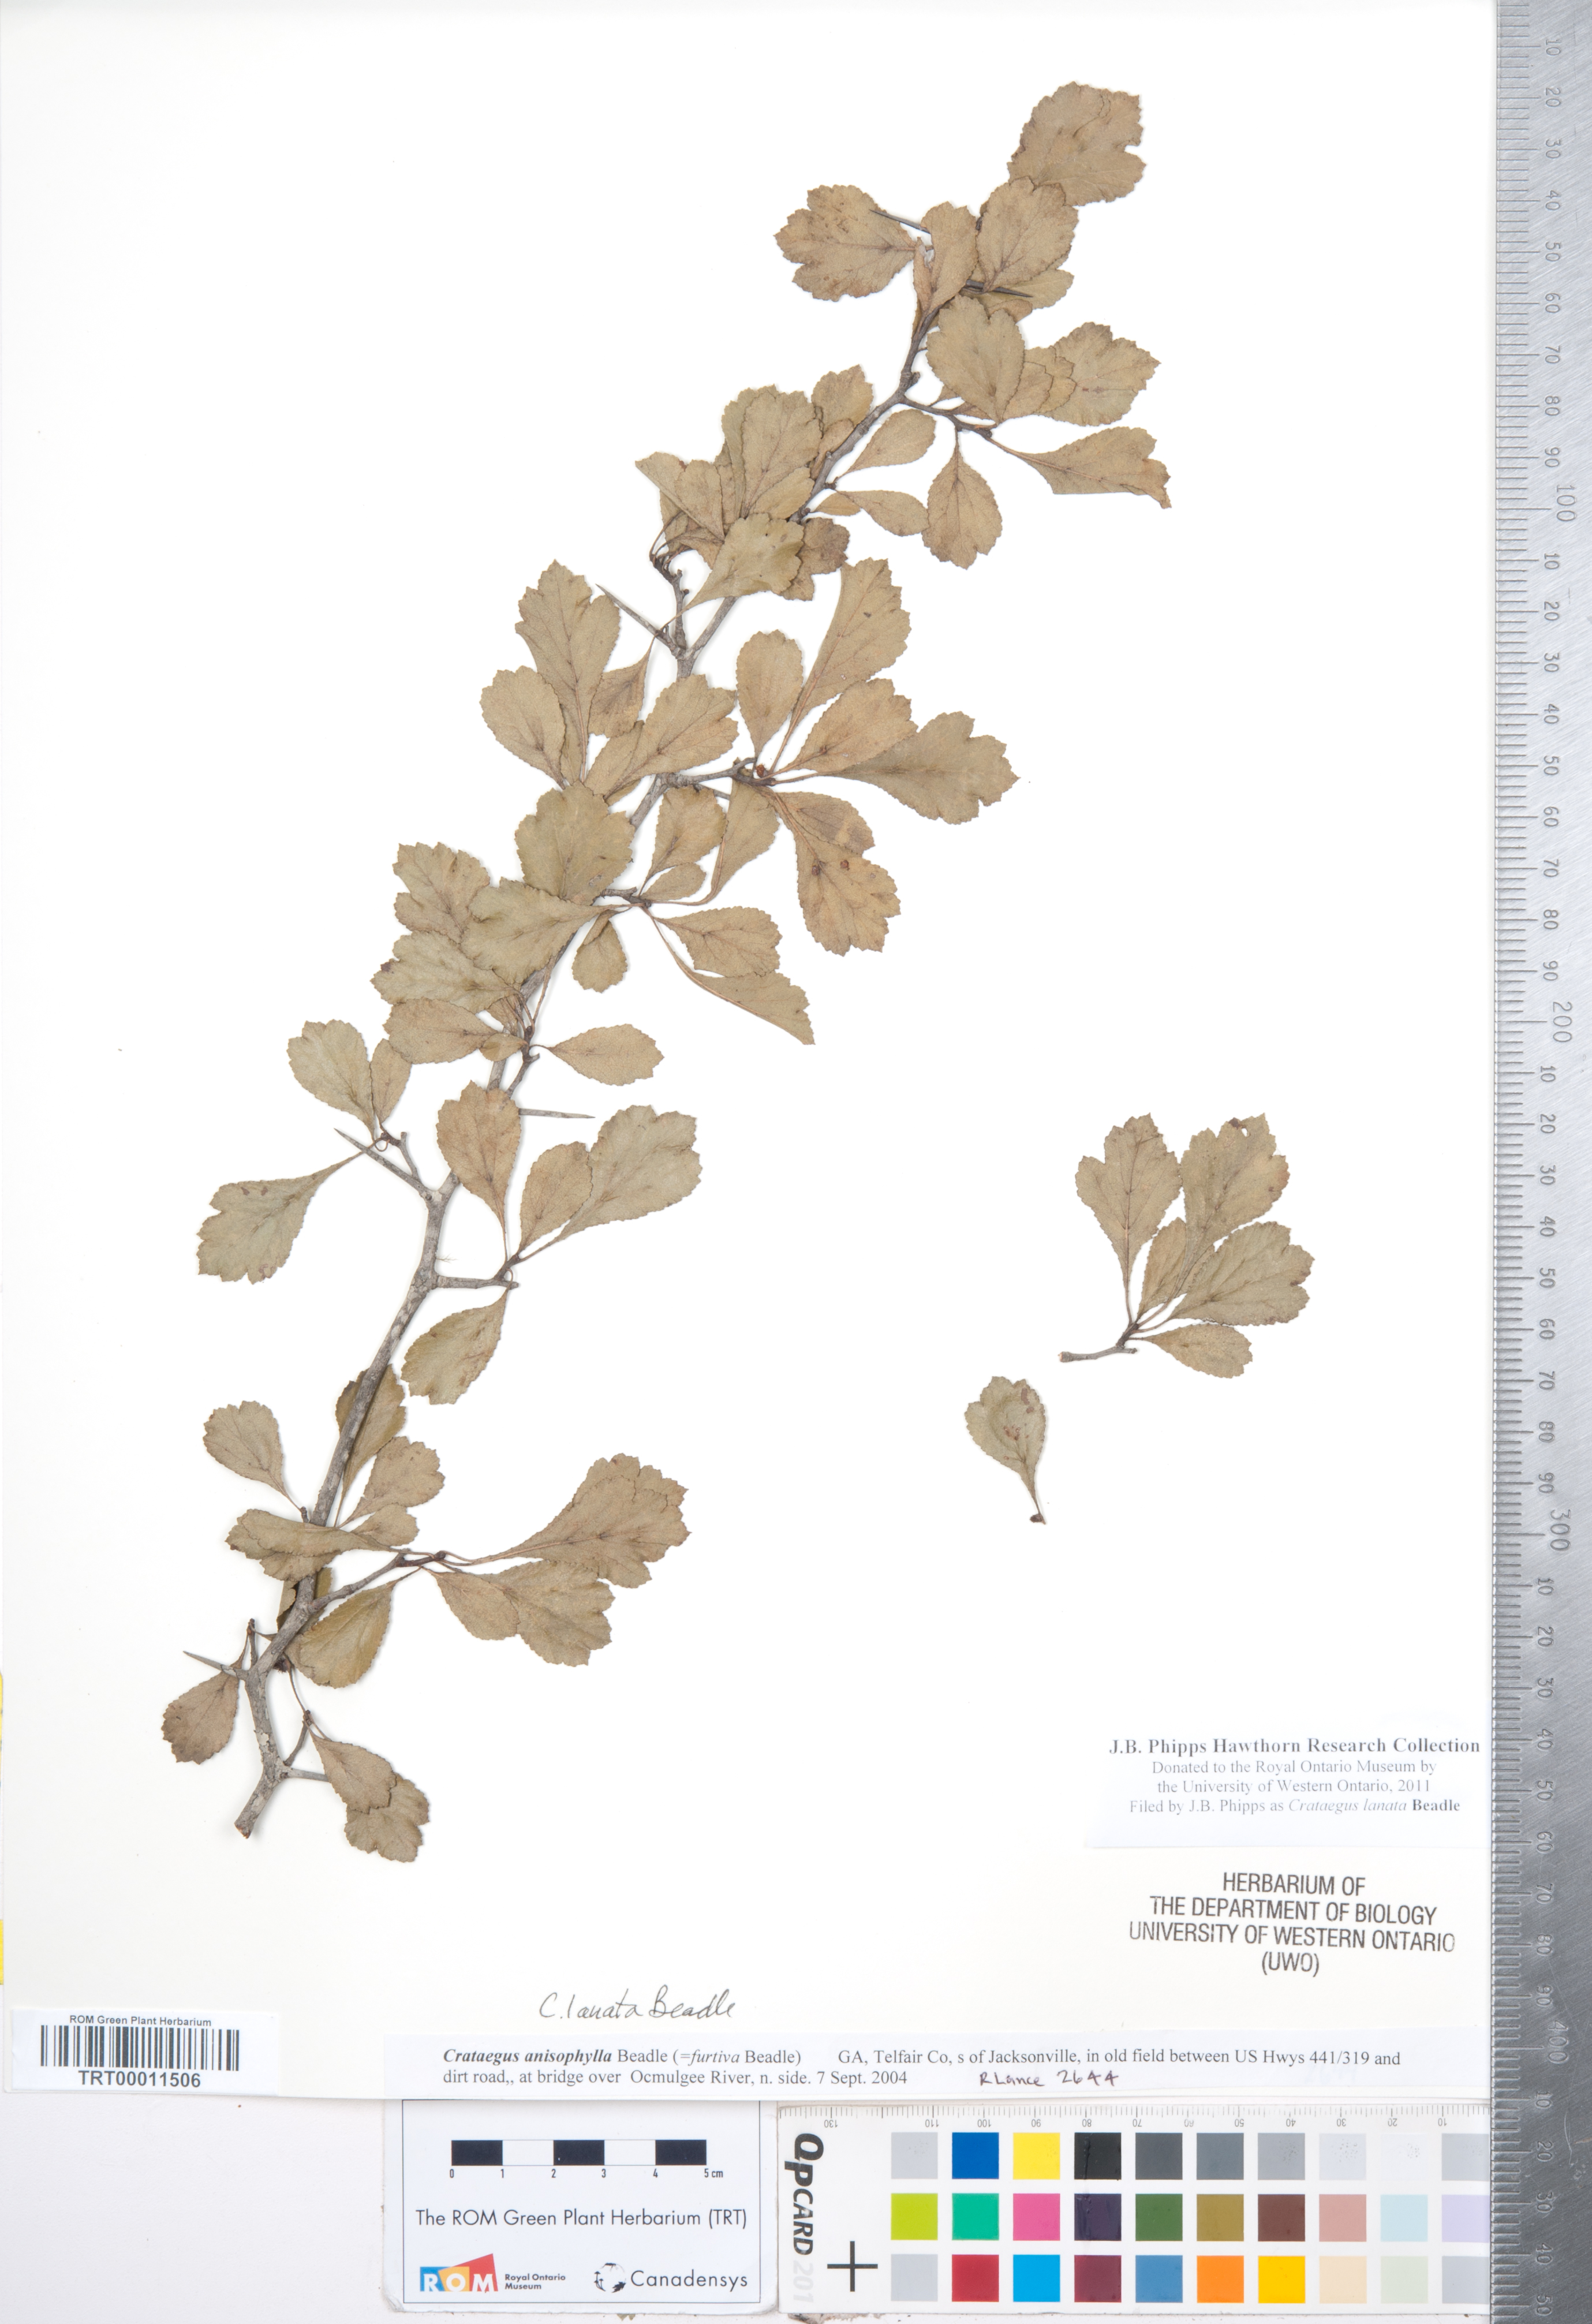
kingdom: Plantae
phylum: Tracheophyta
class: Magnoliopsida
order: Rosales
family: Rosaceae
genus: Crataegus
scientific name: Crataegus lassa
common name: Florida hawthorn
